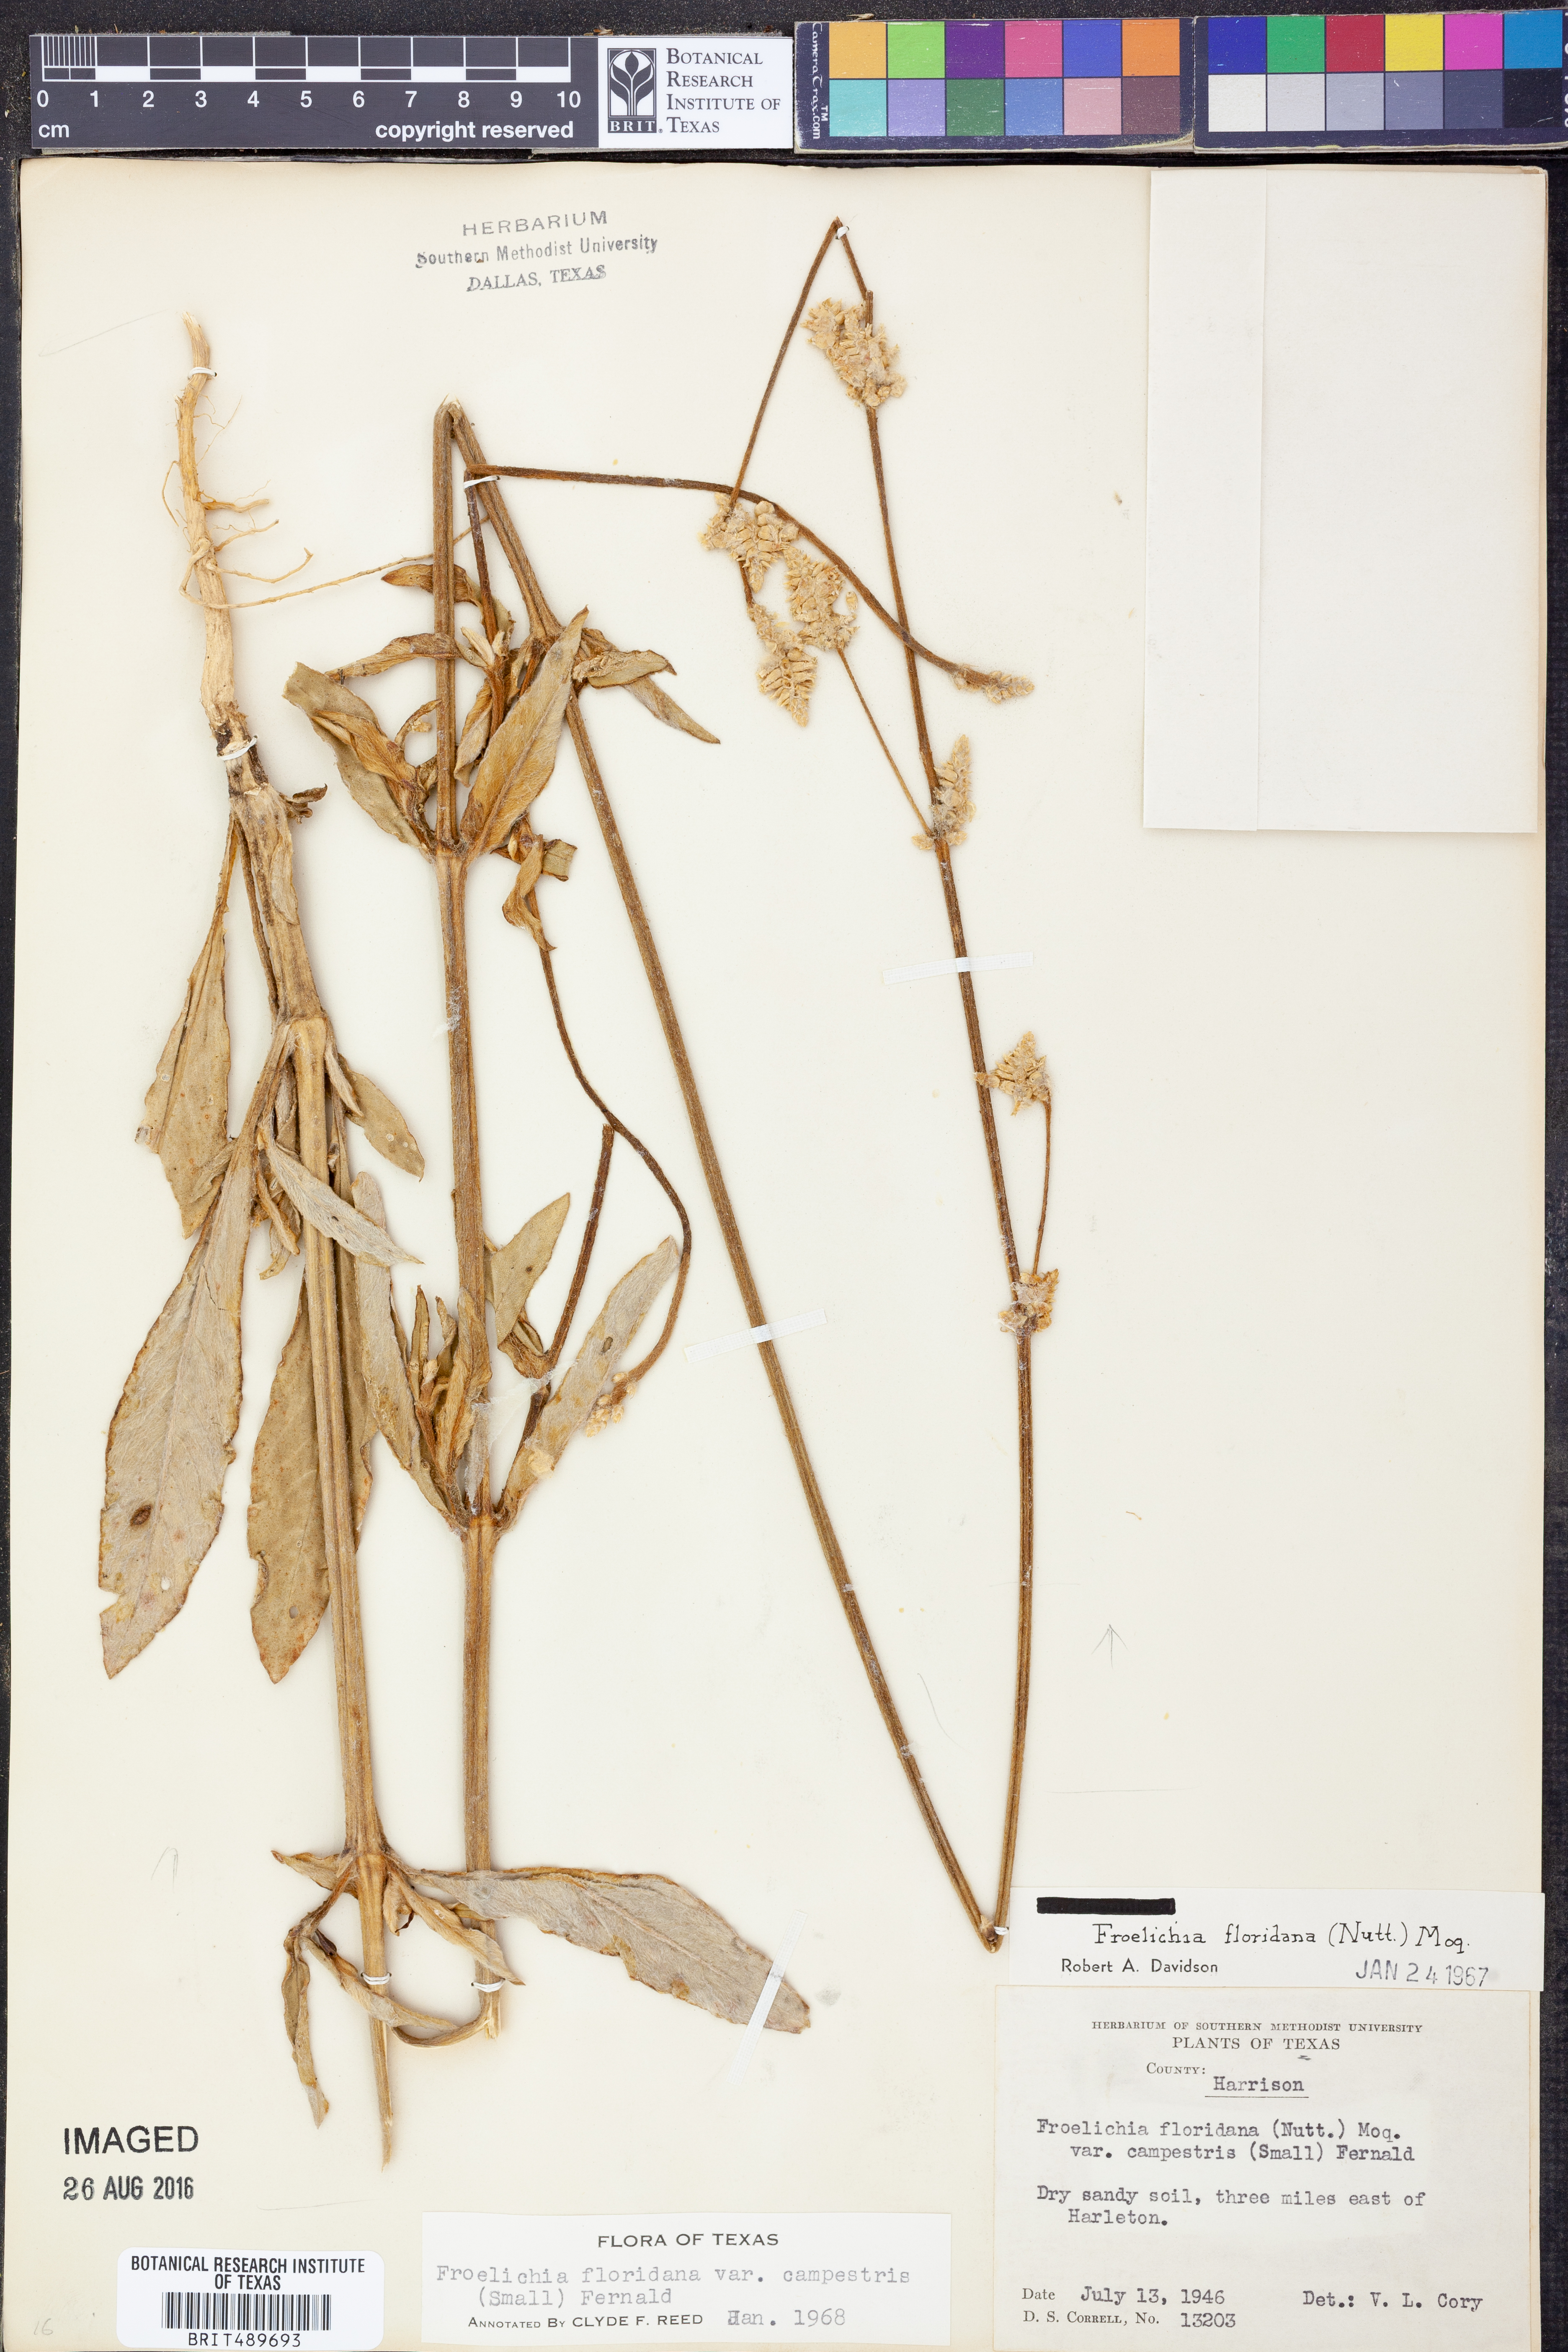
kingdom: Plantae
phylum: Tracheophyta
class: Magnoliopsida
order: Caryophyllales
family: Amaranthaceae
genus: Froelichia
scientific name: Froelichia floridana
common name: Florida snake-cotton
